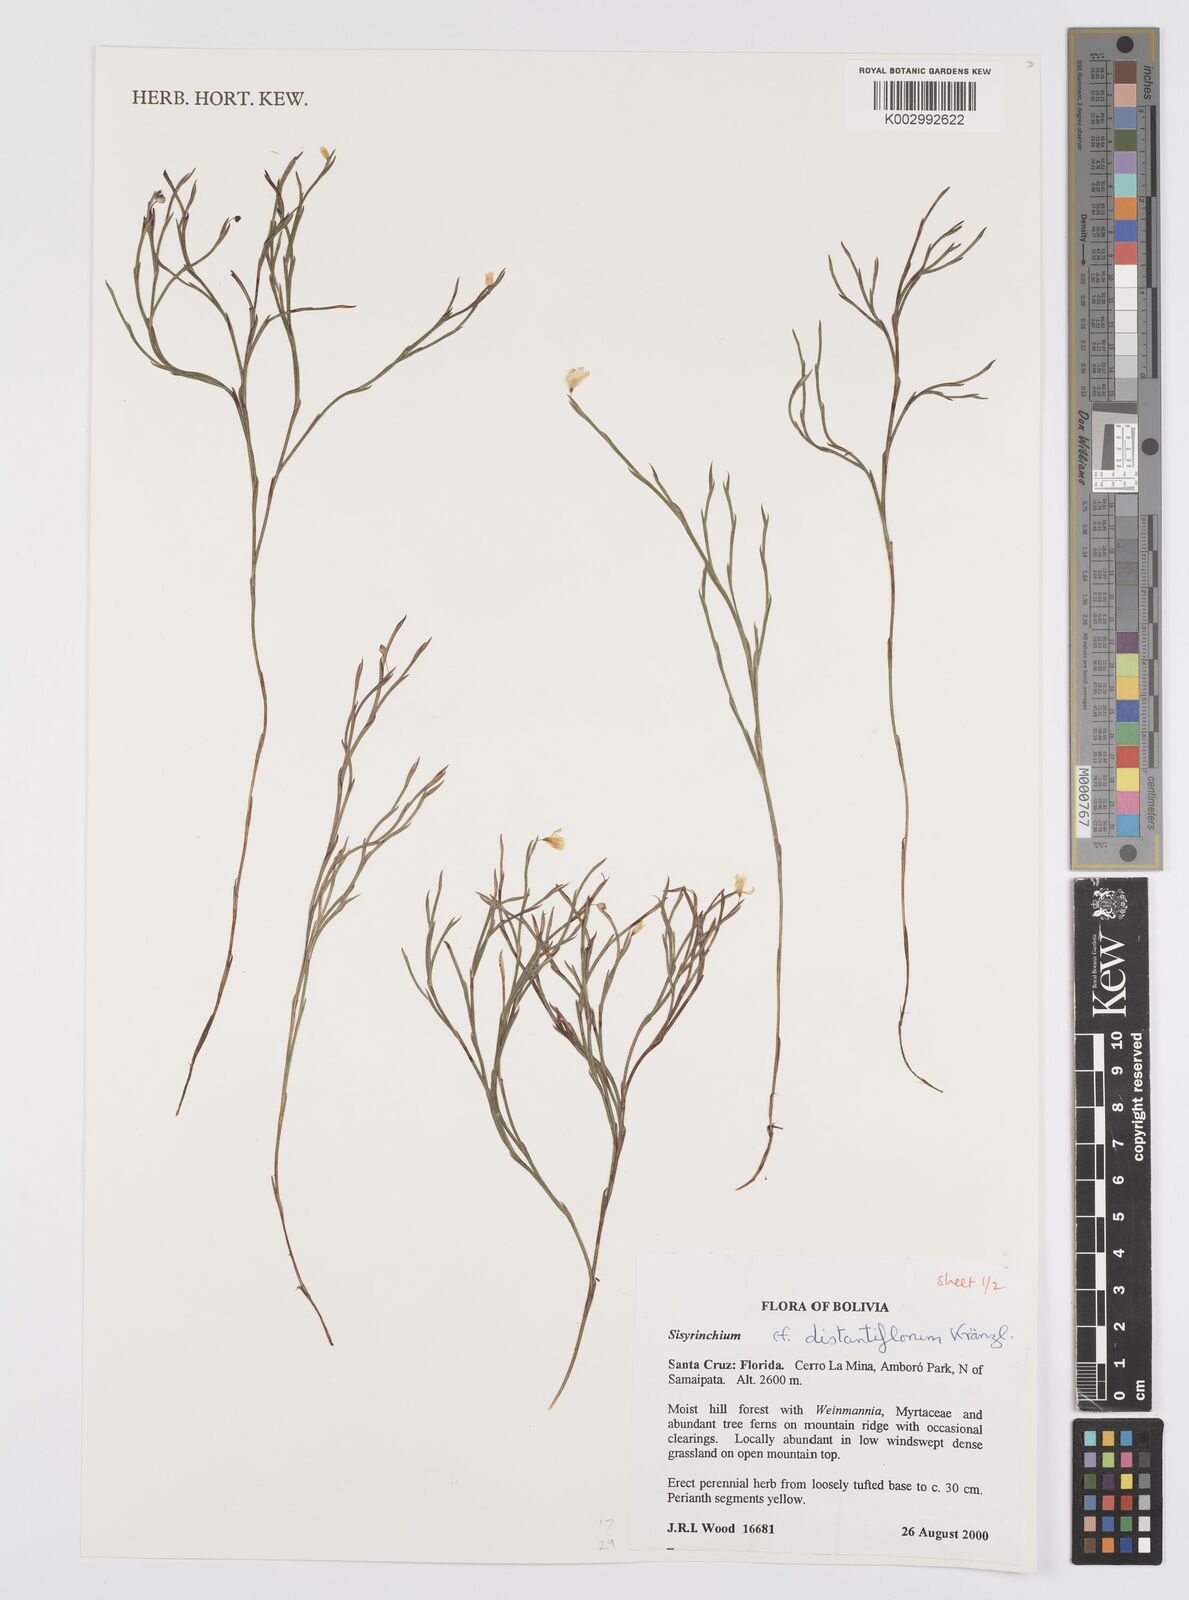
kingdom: Plantae
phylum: Tracheophyta
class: Liliopsida
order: Asparagales
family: Iridaceae
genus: Sisyrinchium
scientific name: Sisyrinchium vaginatum
